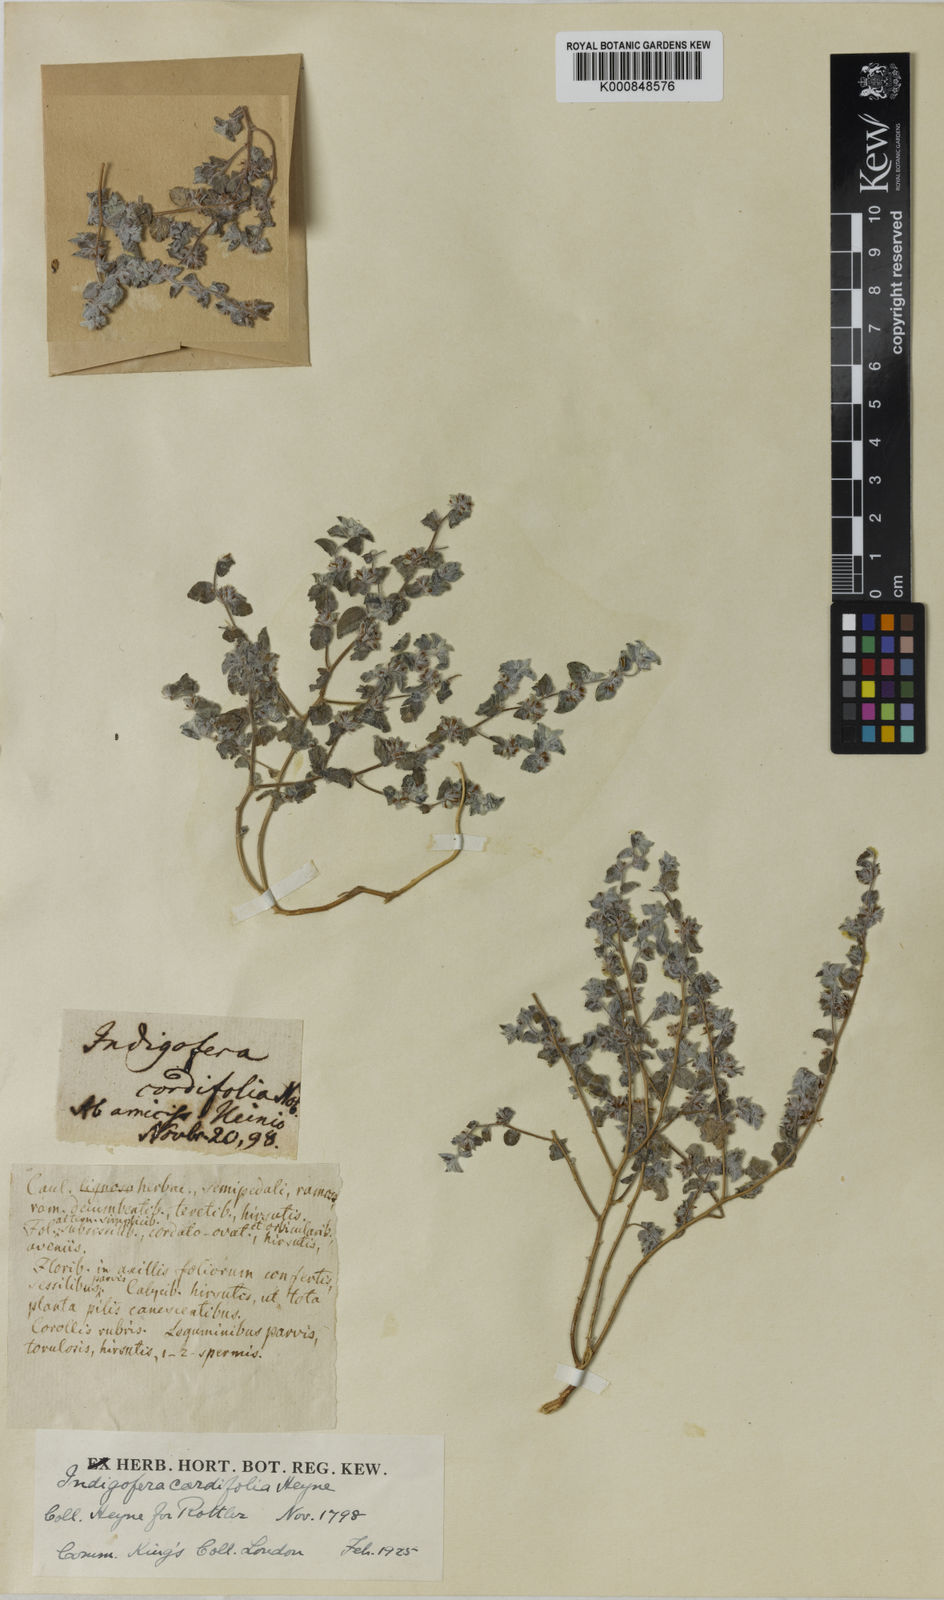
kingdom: Plantae
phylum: Tracheophyta
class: Magnoliopsida
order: Fabales
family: Fabaceae
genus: Indigofera
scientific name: Indigofera cordifolia
